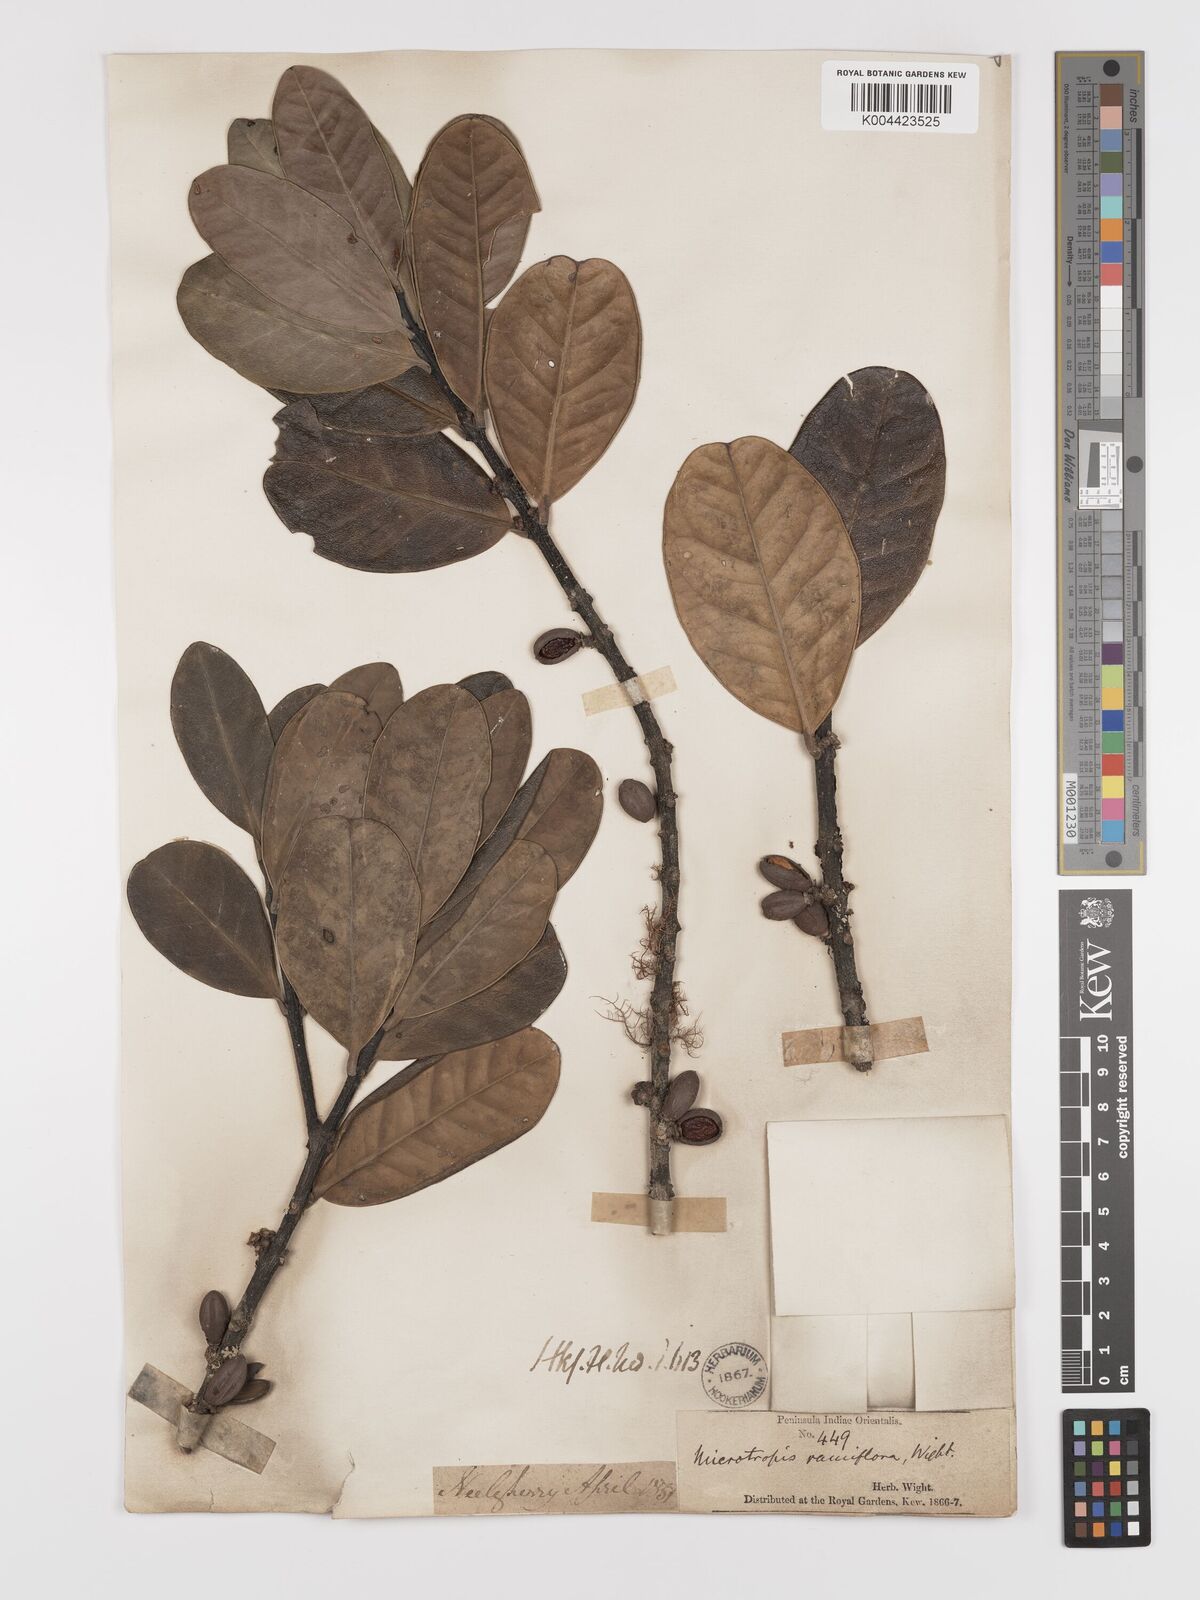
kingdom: Plantae
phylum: Tracheophyta
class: Magnoliopsida
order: Celastrales
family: Celastraceae
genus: Microtropis
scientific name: Microtropis ramiflora
